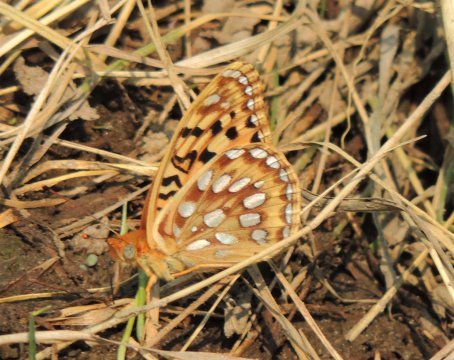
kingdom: Animalia
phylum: Arthropoda
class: Insecta
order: Lepidoptera
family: Nymphalidae
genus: Speyeria
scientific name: Speyeria coronis
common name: Coronis Fritillary
